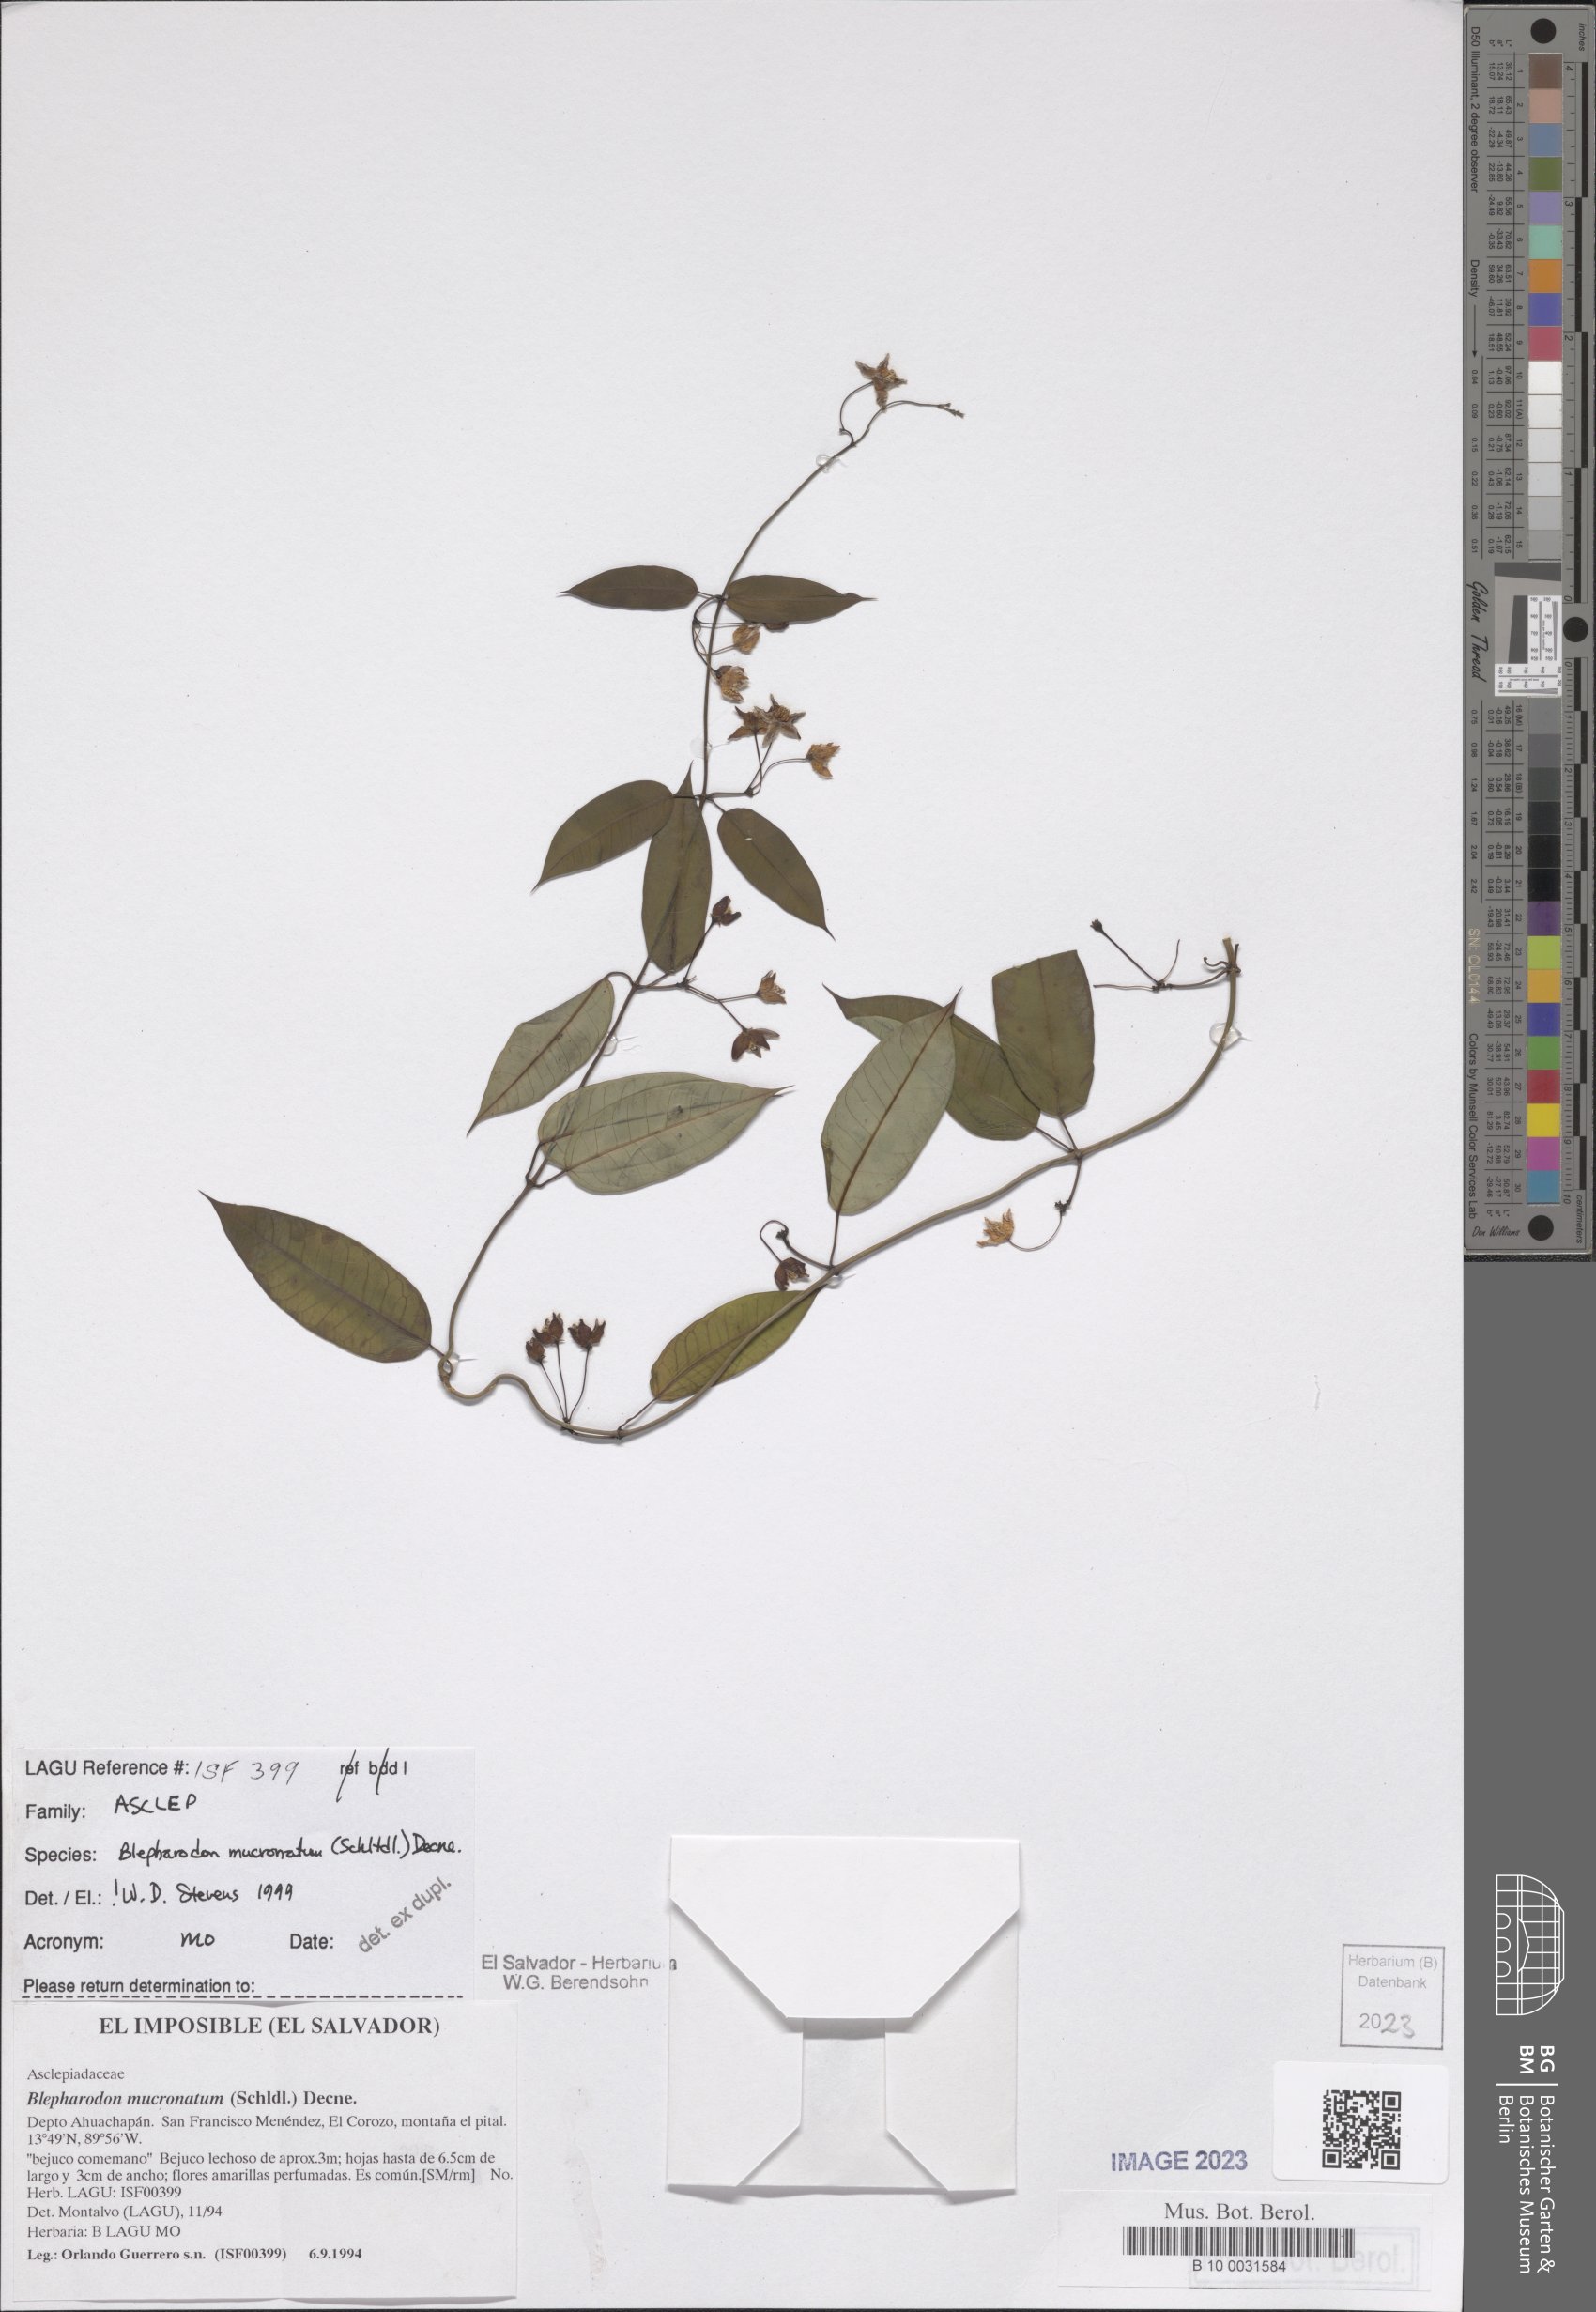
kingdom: Plantae
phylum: Tracheophyta
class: Magnoliopsida
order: Gentianales
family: Apocynaceae
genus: Vailia
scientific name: Vailia anomala
